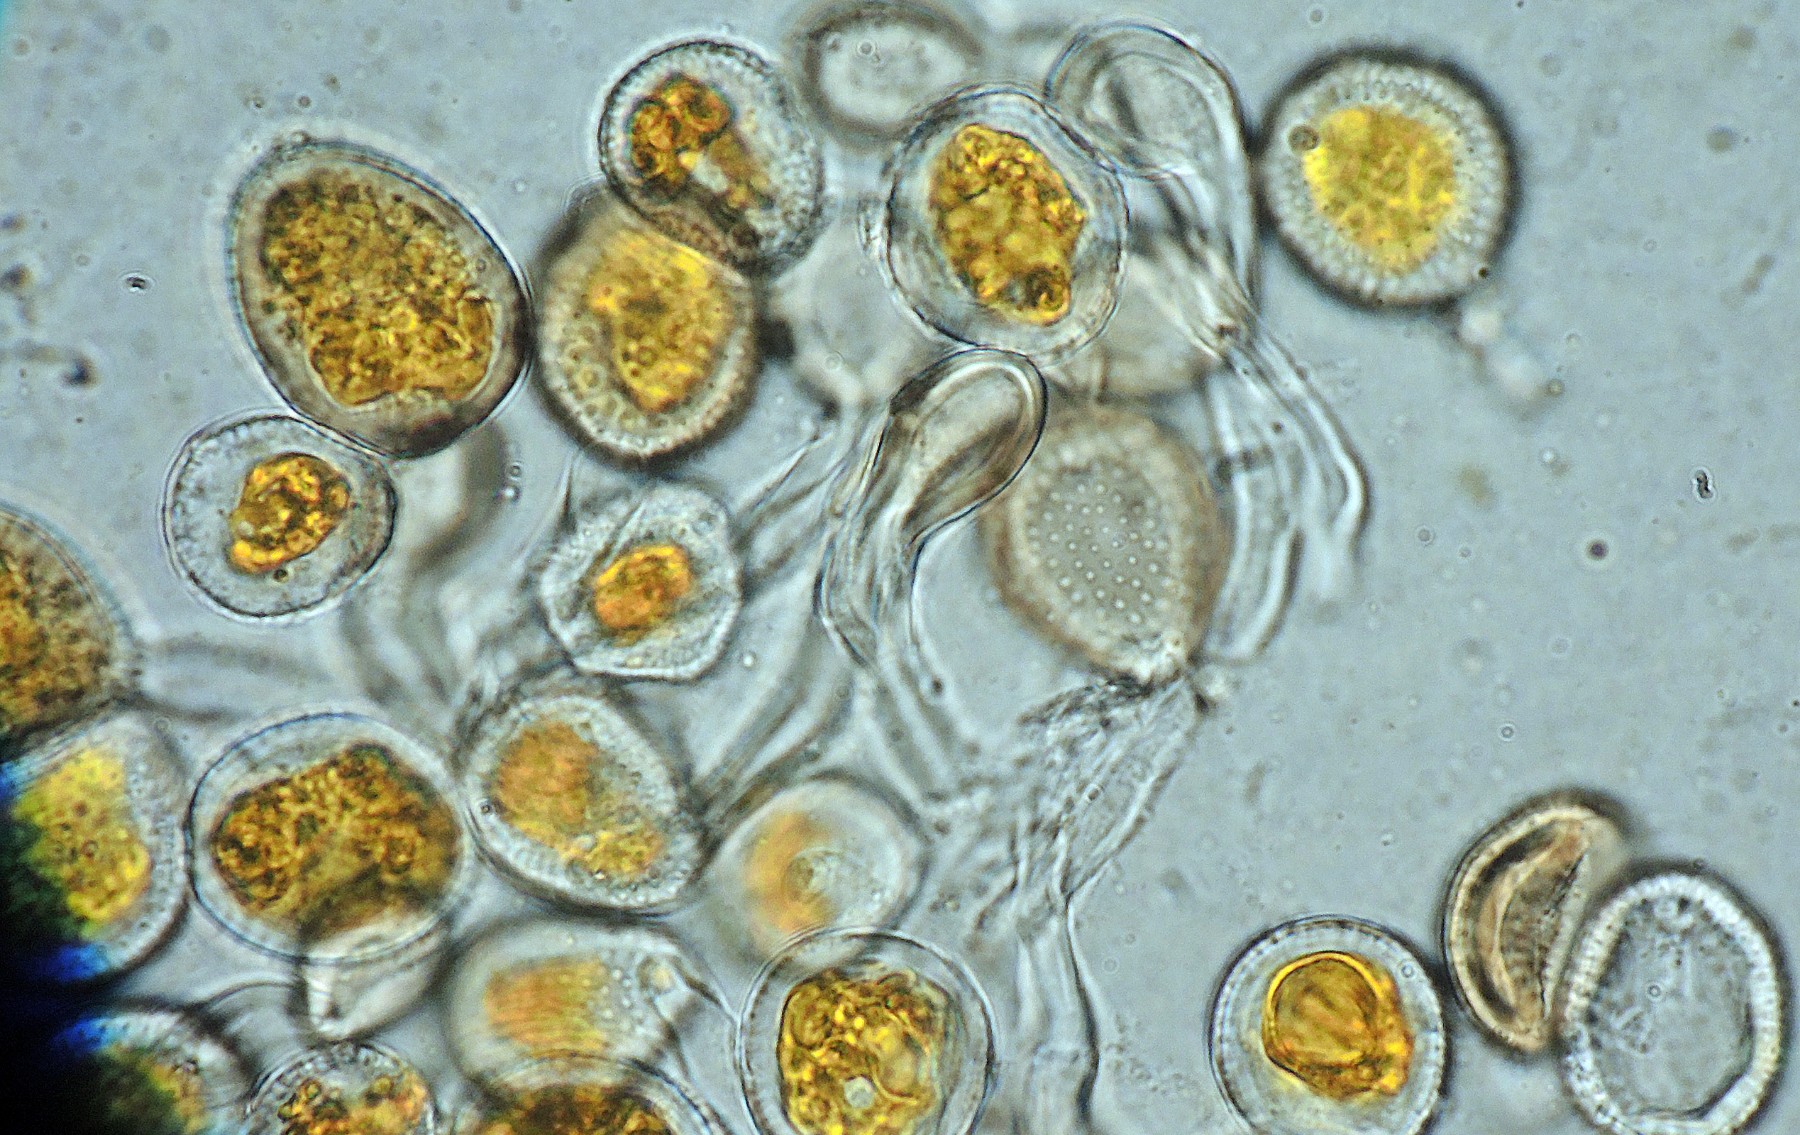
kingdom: Fungi
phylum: Basidiomycota
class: Pucciniomycetes
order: Pucciniales
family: Pucciniaceae
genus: Puccinia
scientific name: Puccinia brachypodii
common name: Rust fungus
